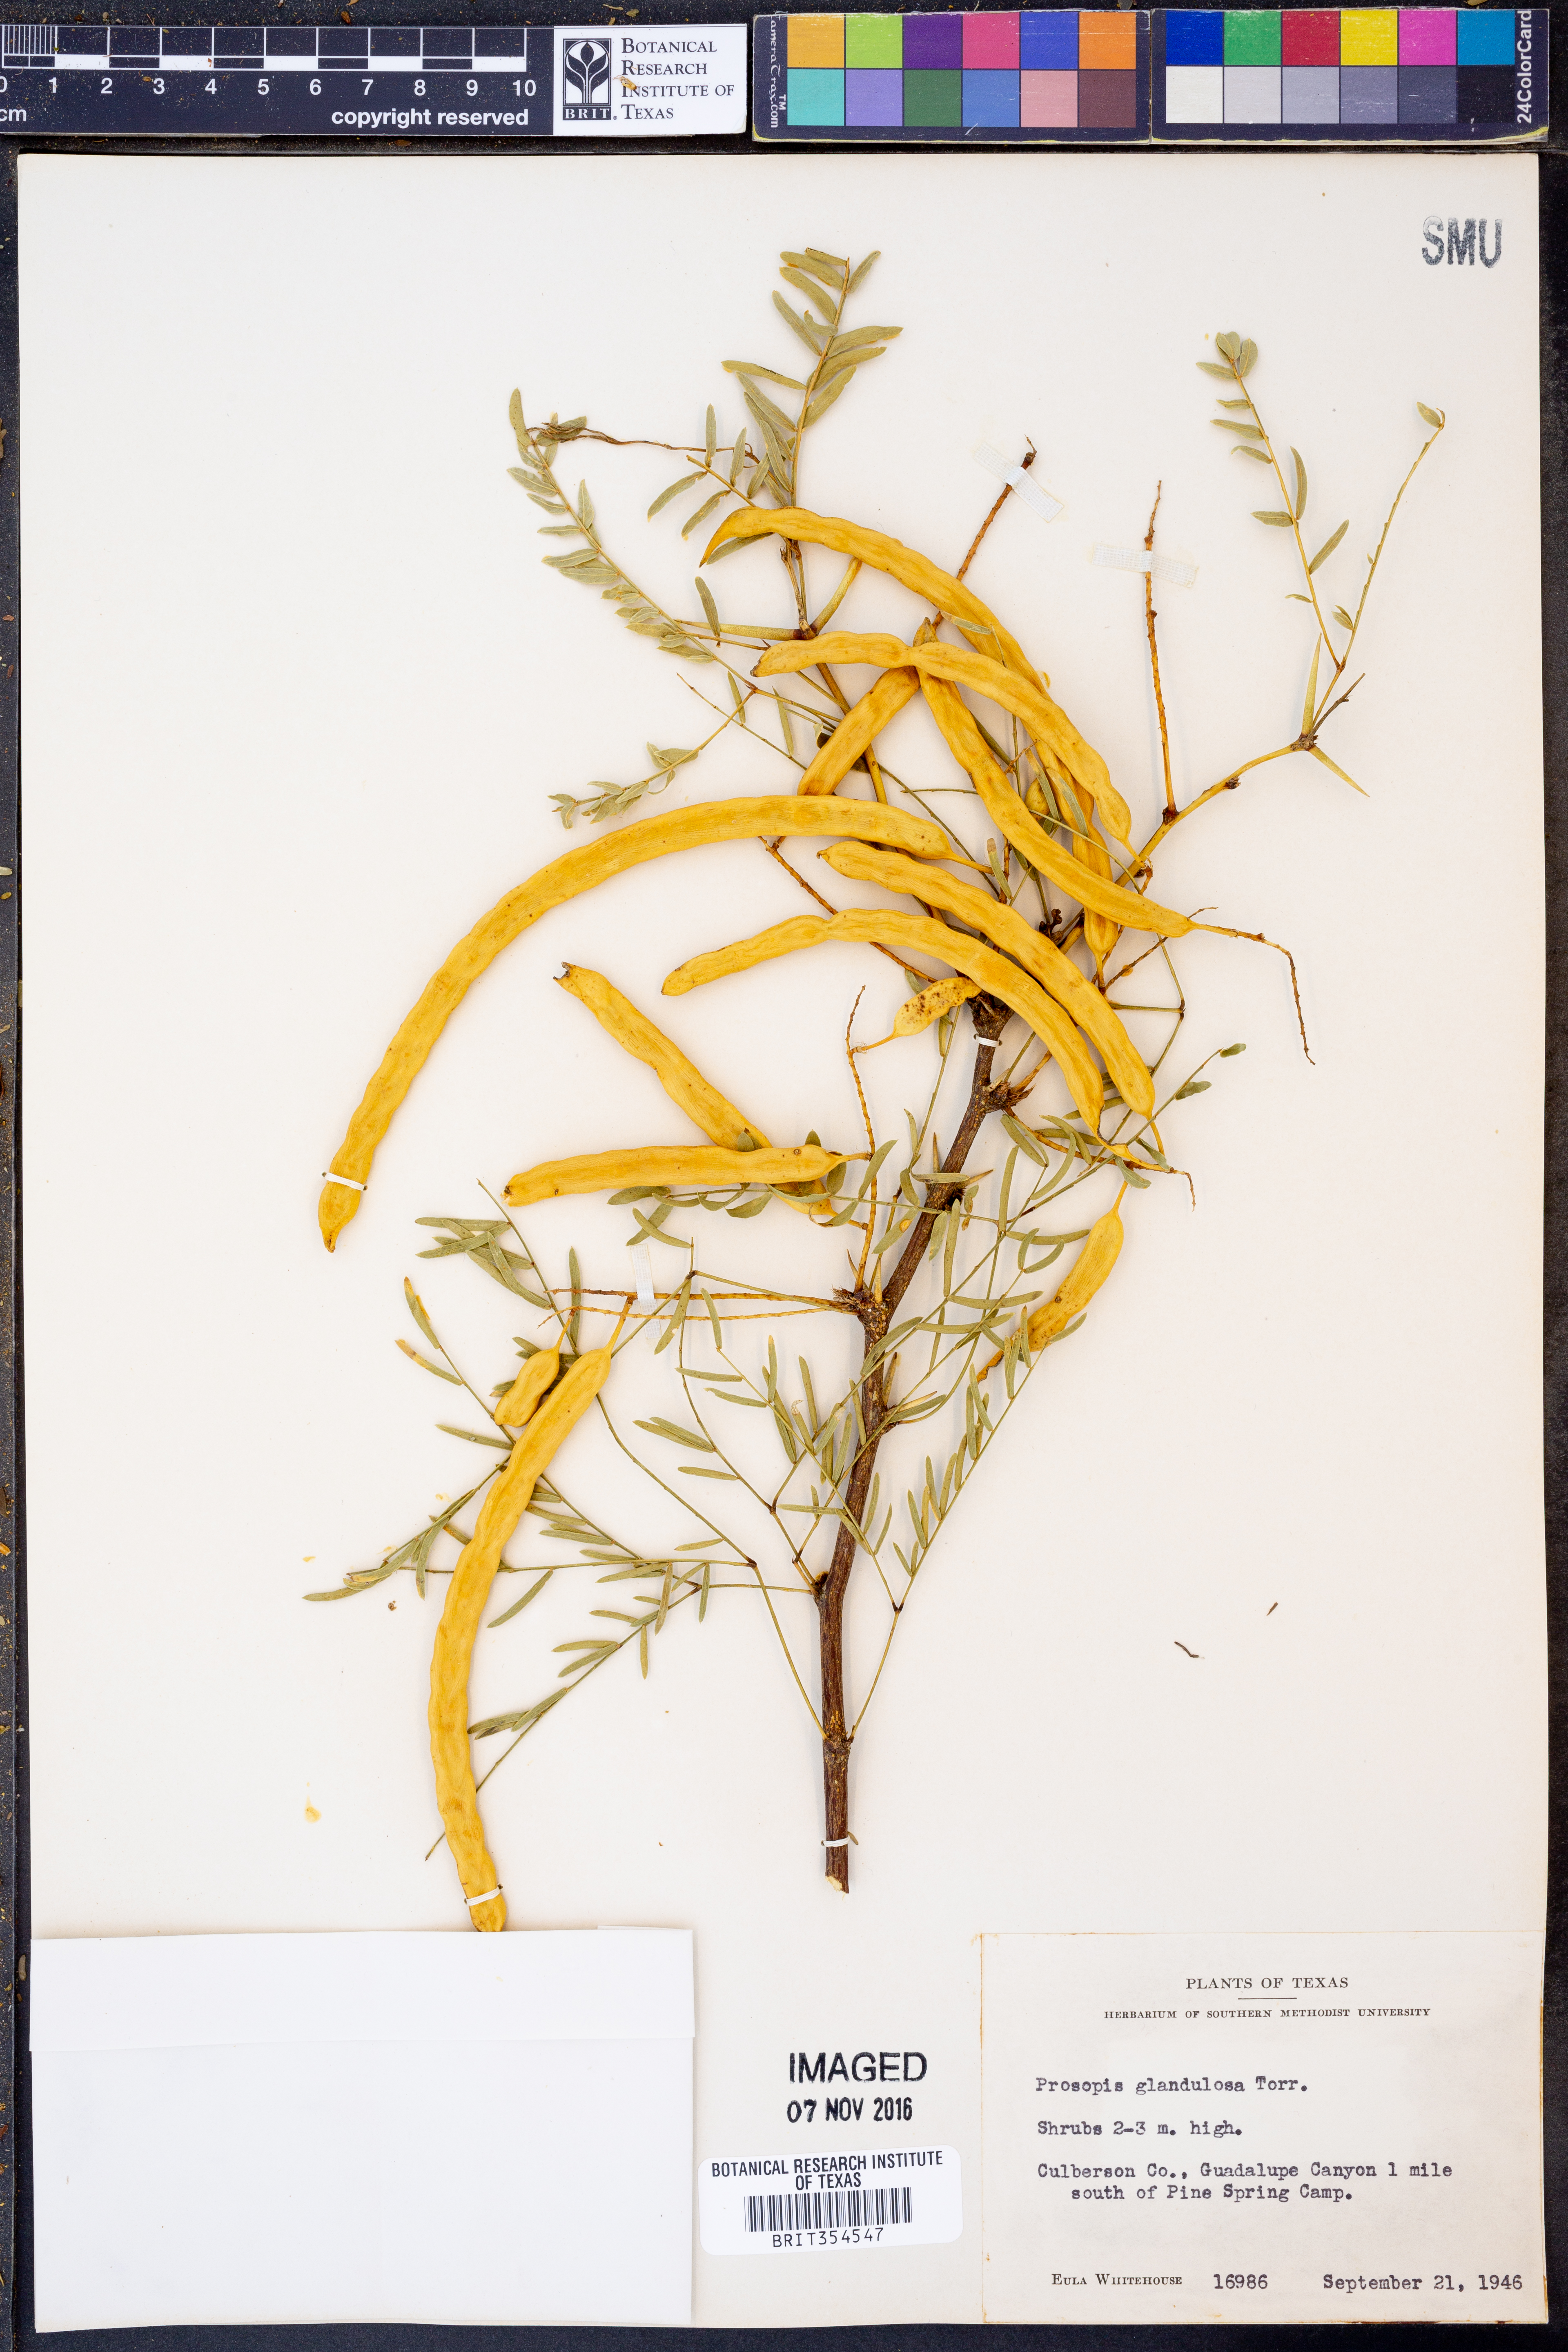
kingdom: Plantae
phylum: Tracheophyta
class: Magnoliopsida
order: Fabales
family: Fabaceae
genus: Prosopis
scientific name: Prosopis glandulosa
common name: Honey mesquite
